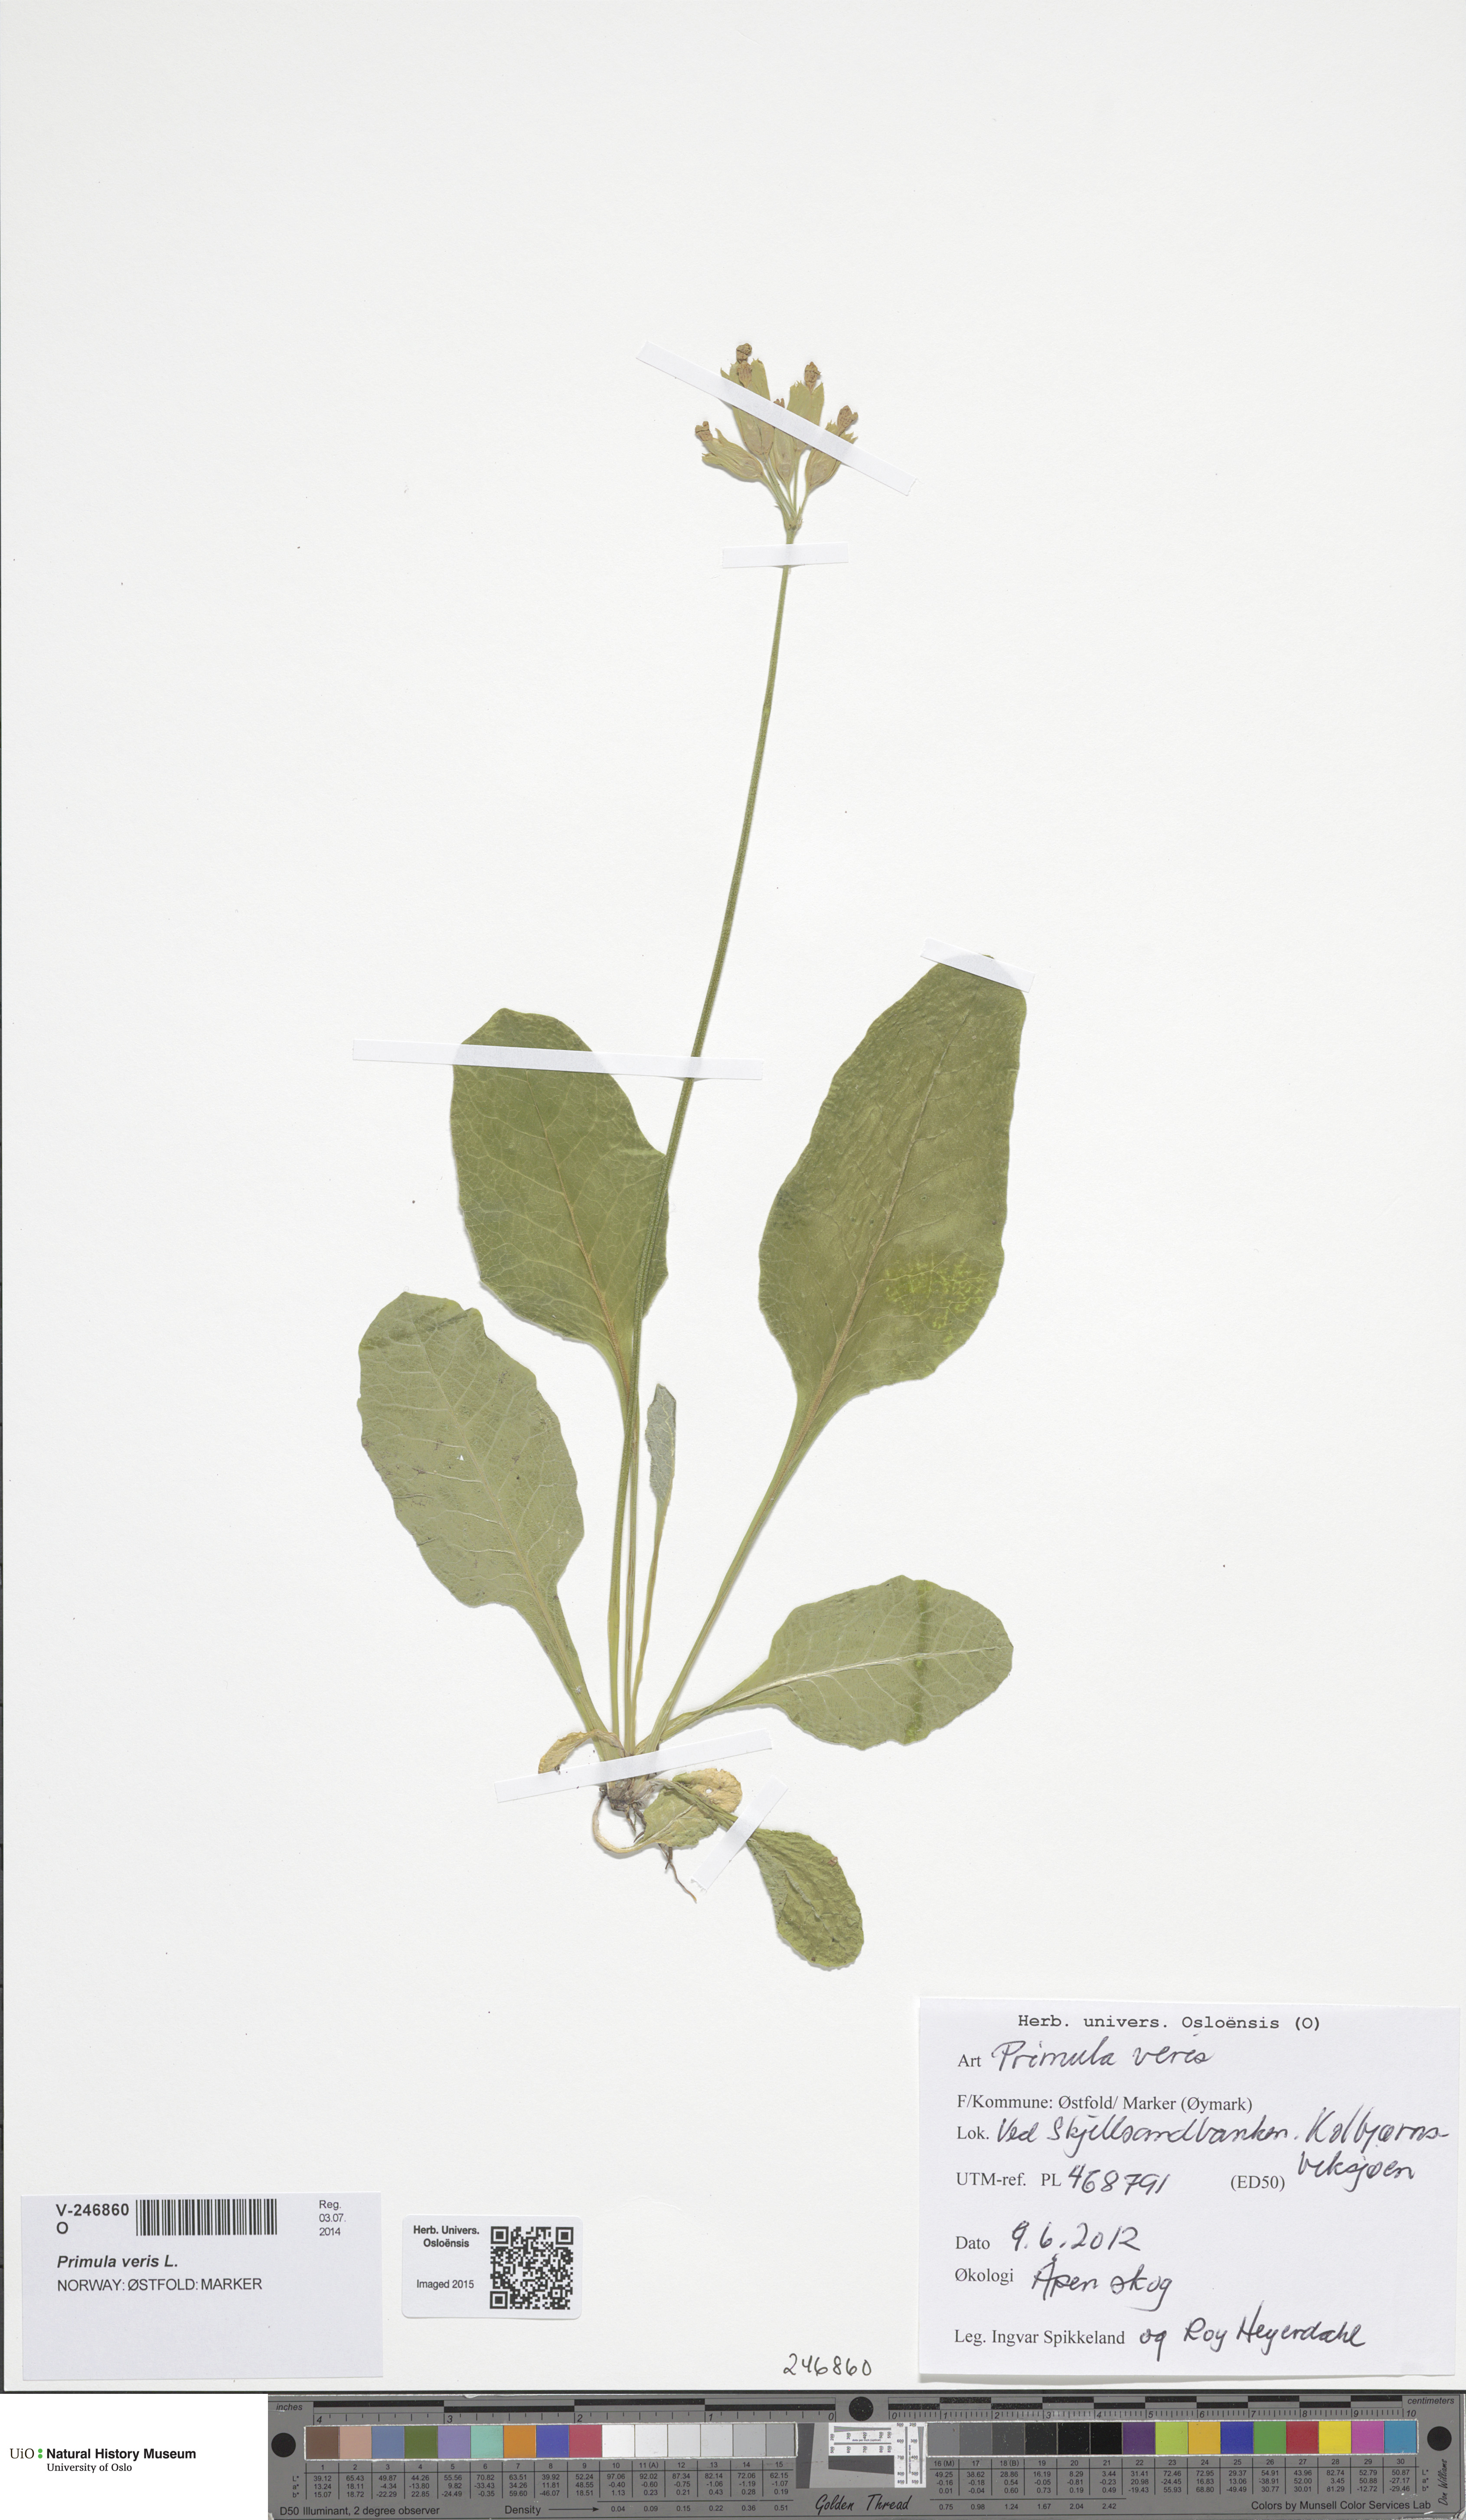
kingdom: Plantae
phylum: Tracheophyta
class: Magnoliopsida
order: Ericales
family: Primulaceae
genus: Primula
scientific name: Primula veris
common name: Cowslip
